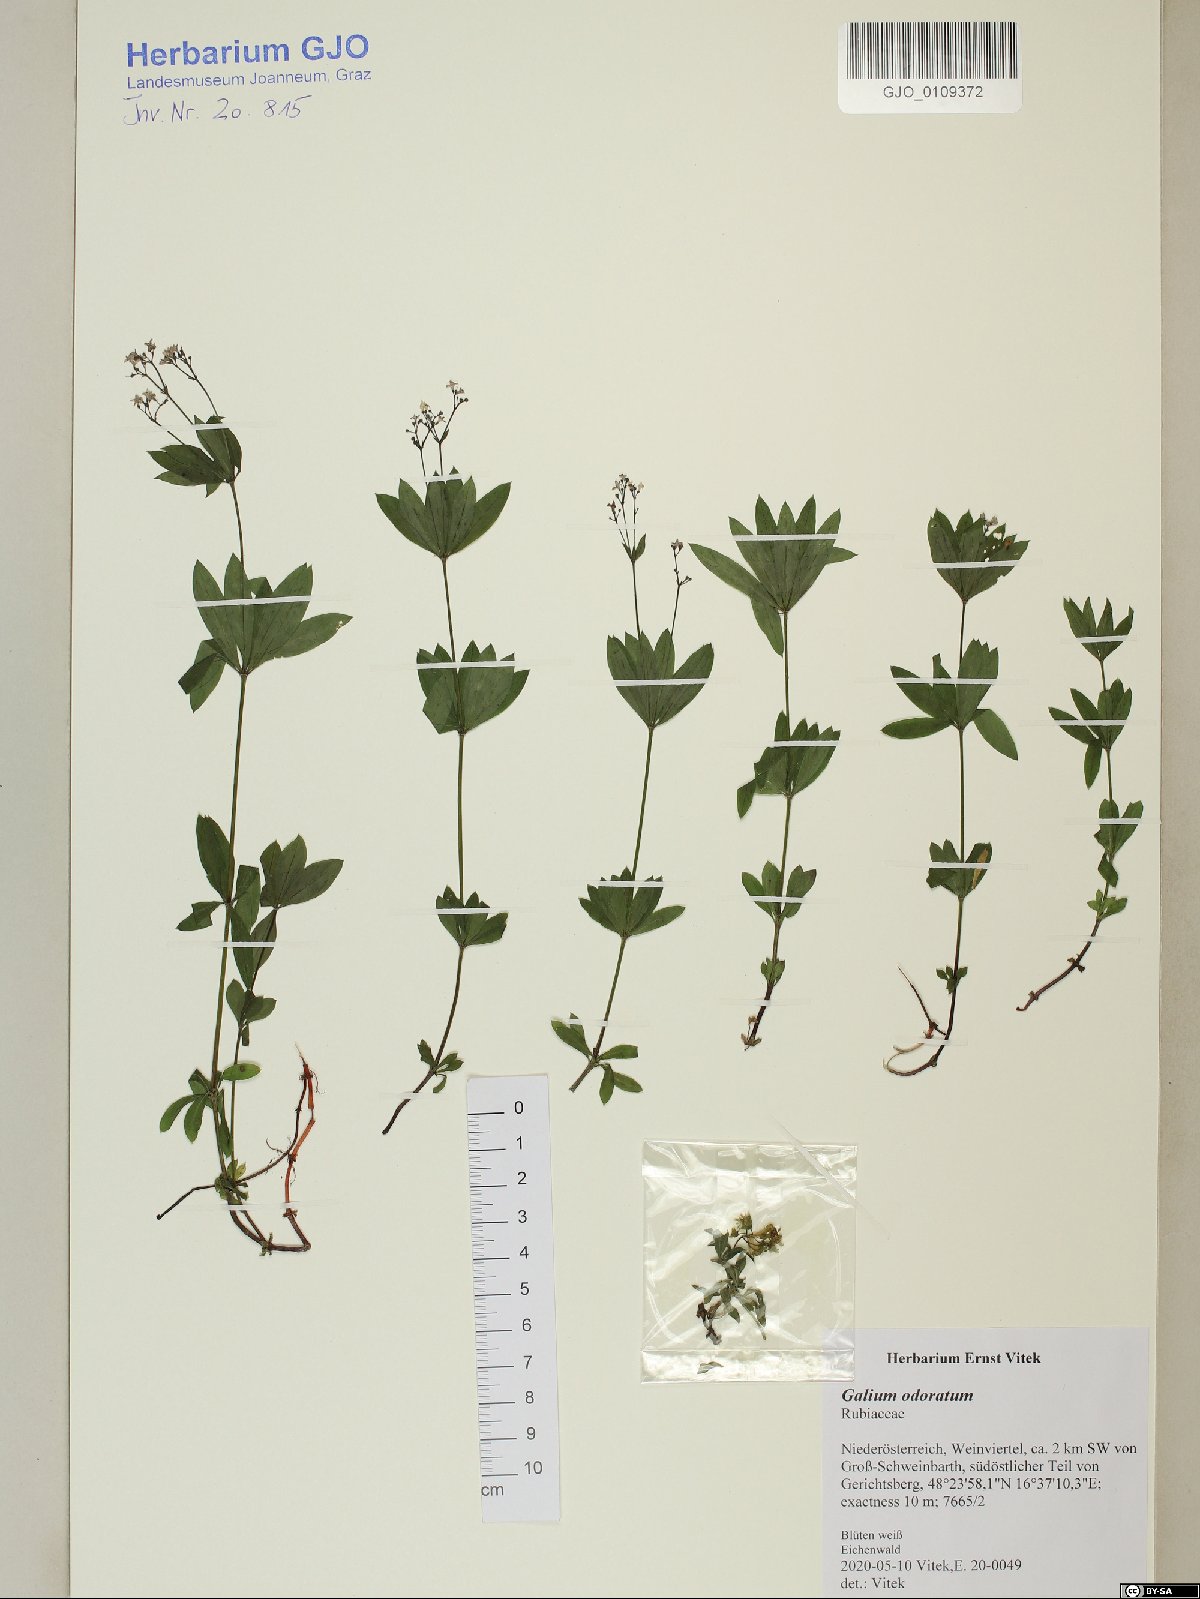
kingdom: Plantae
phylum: Tracheophyta
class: Magnoliopsida
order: Gentianales
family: Rubiaceae
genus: Galium
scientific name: Galium odoratum
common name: Sweet woodruff
